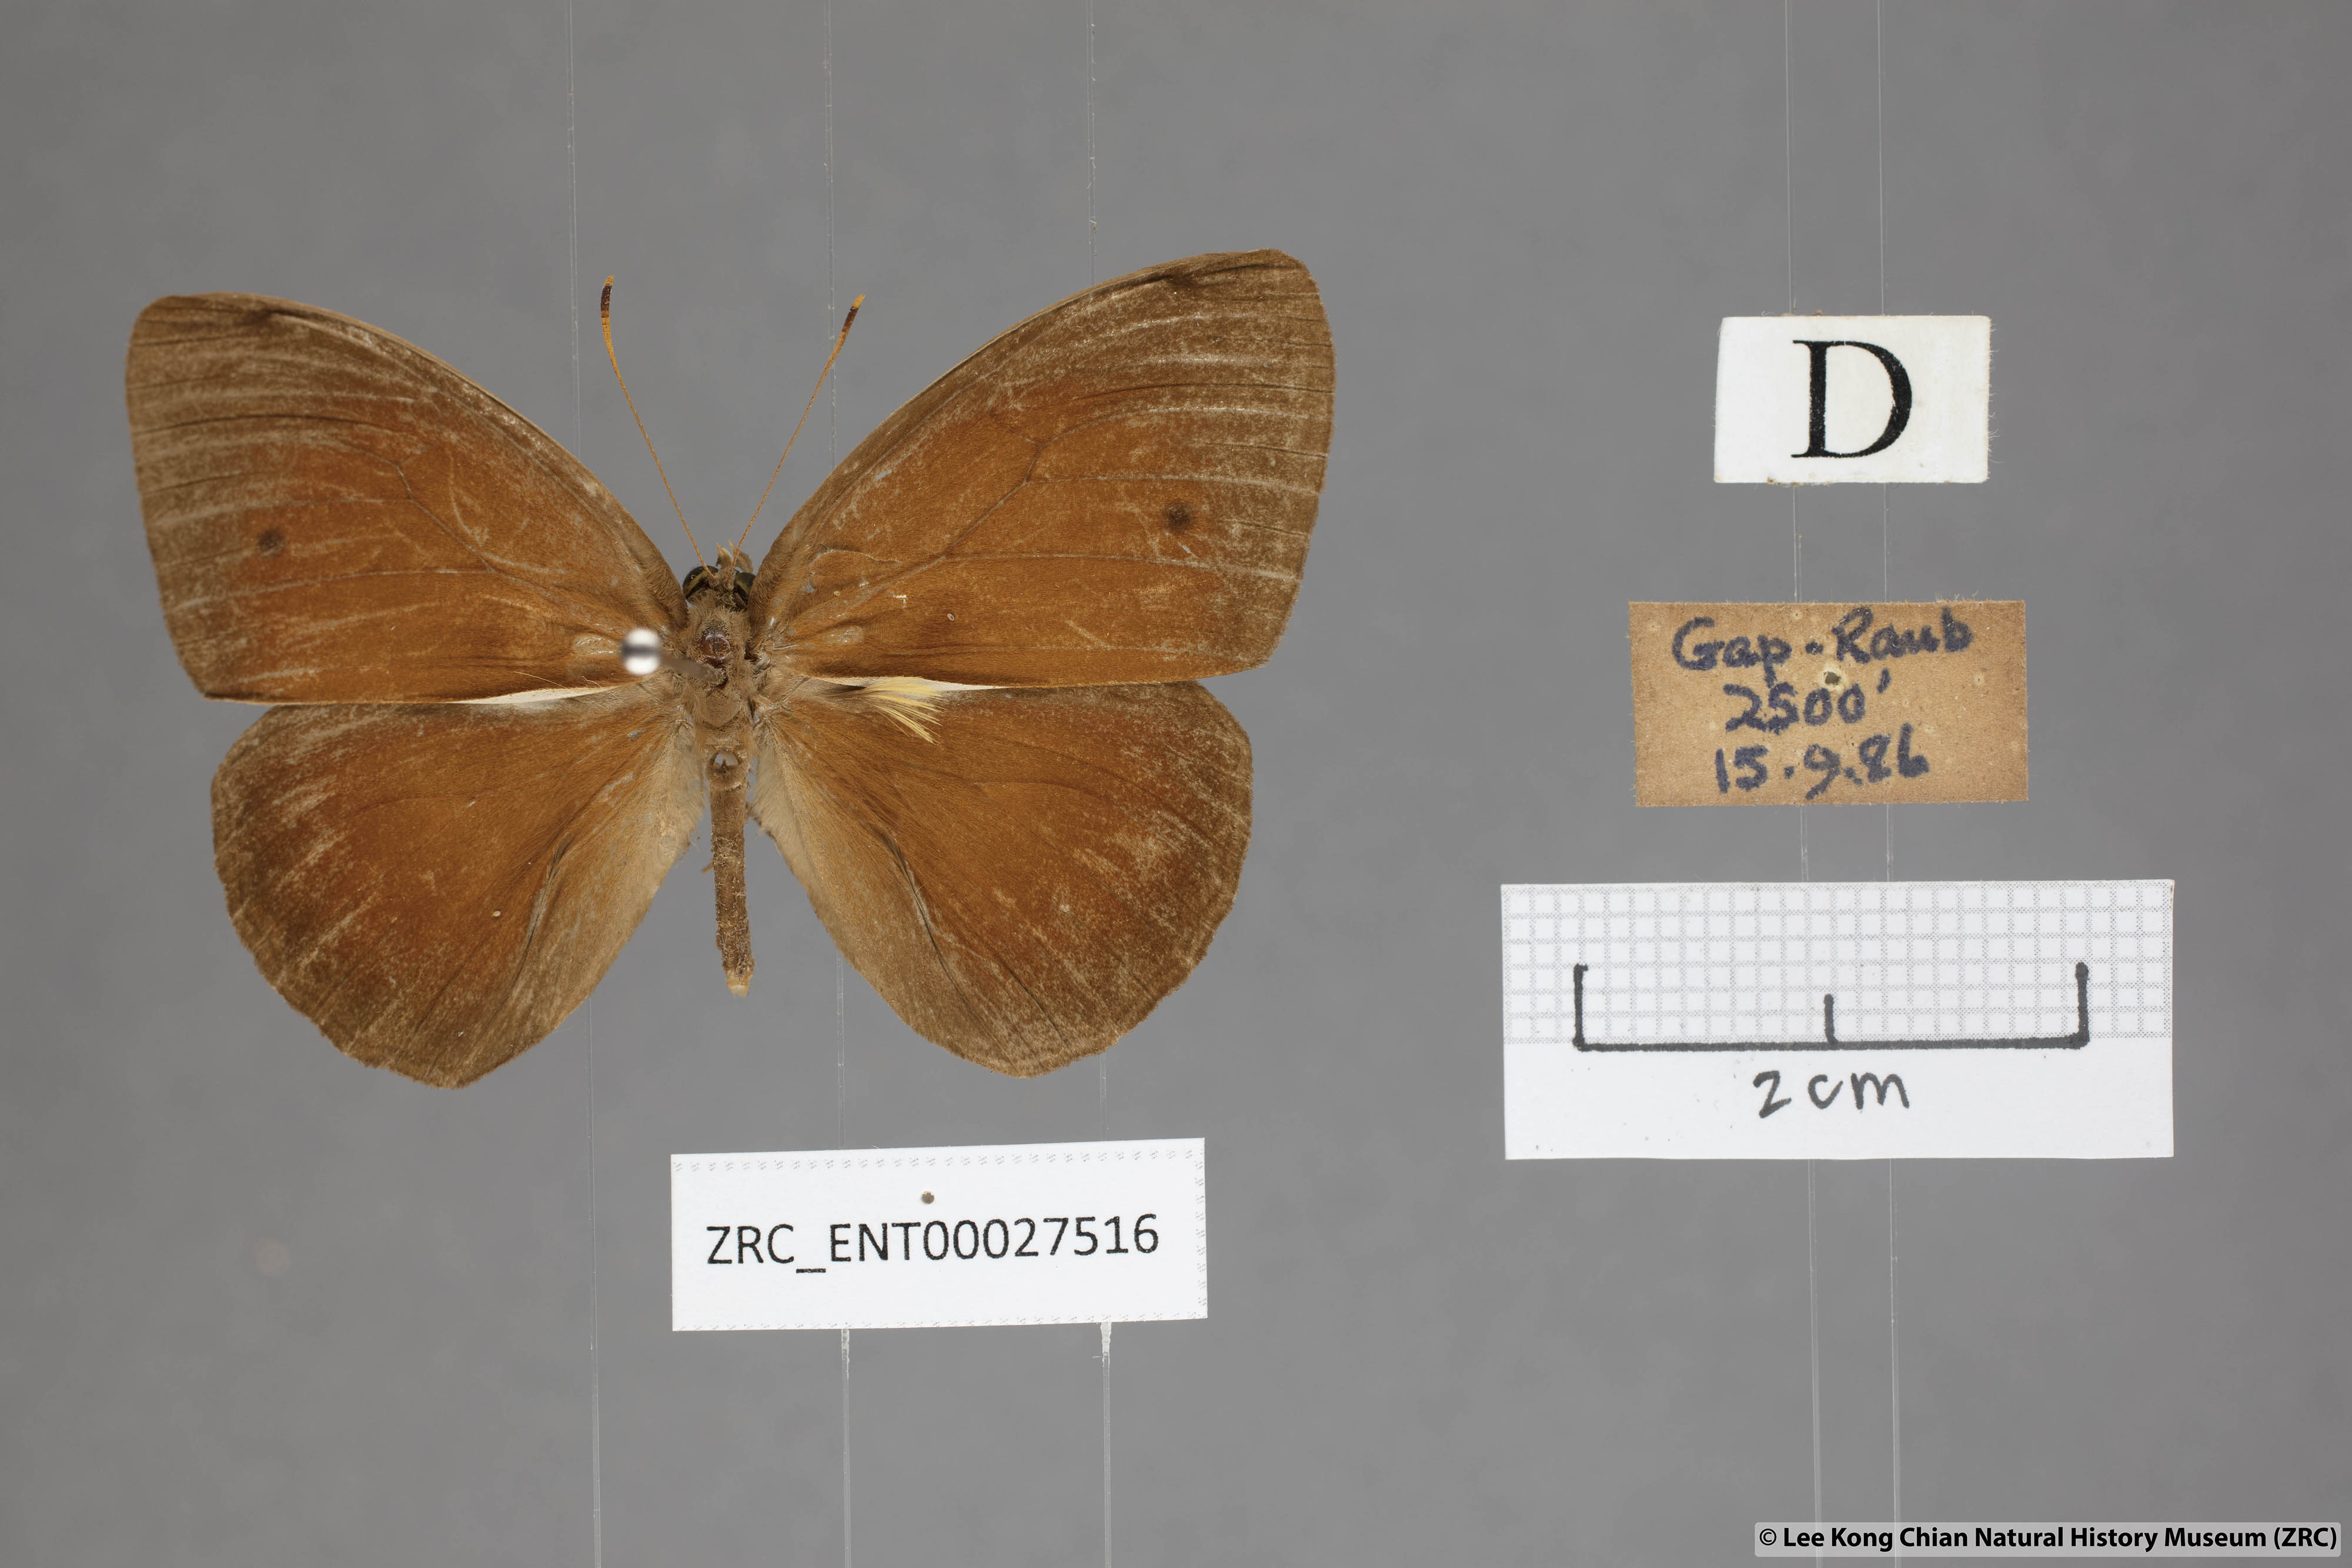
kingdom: Animalia
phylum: Arthropoda
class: Insecta
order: Lepidoptera
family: Nymphalidae
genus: Mycalesis
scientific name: Mycalesis oroatis
